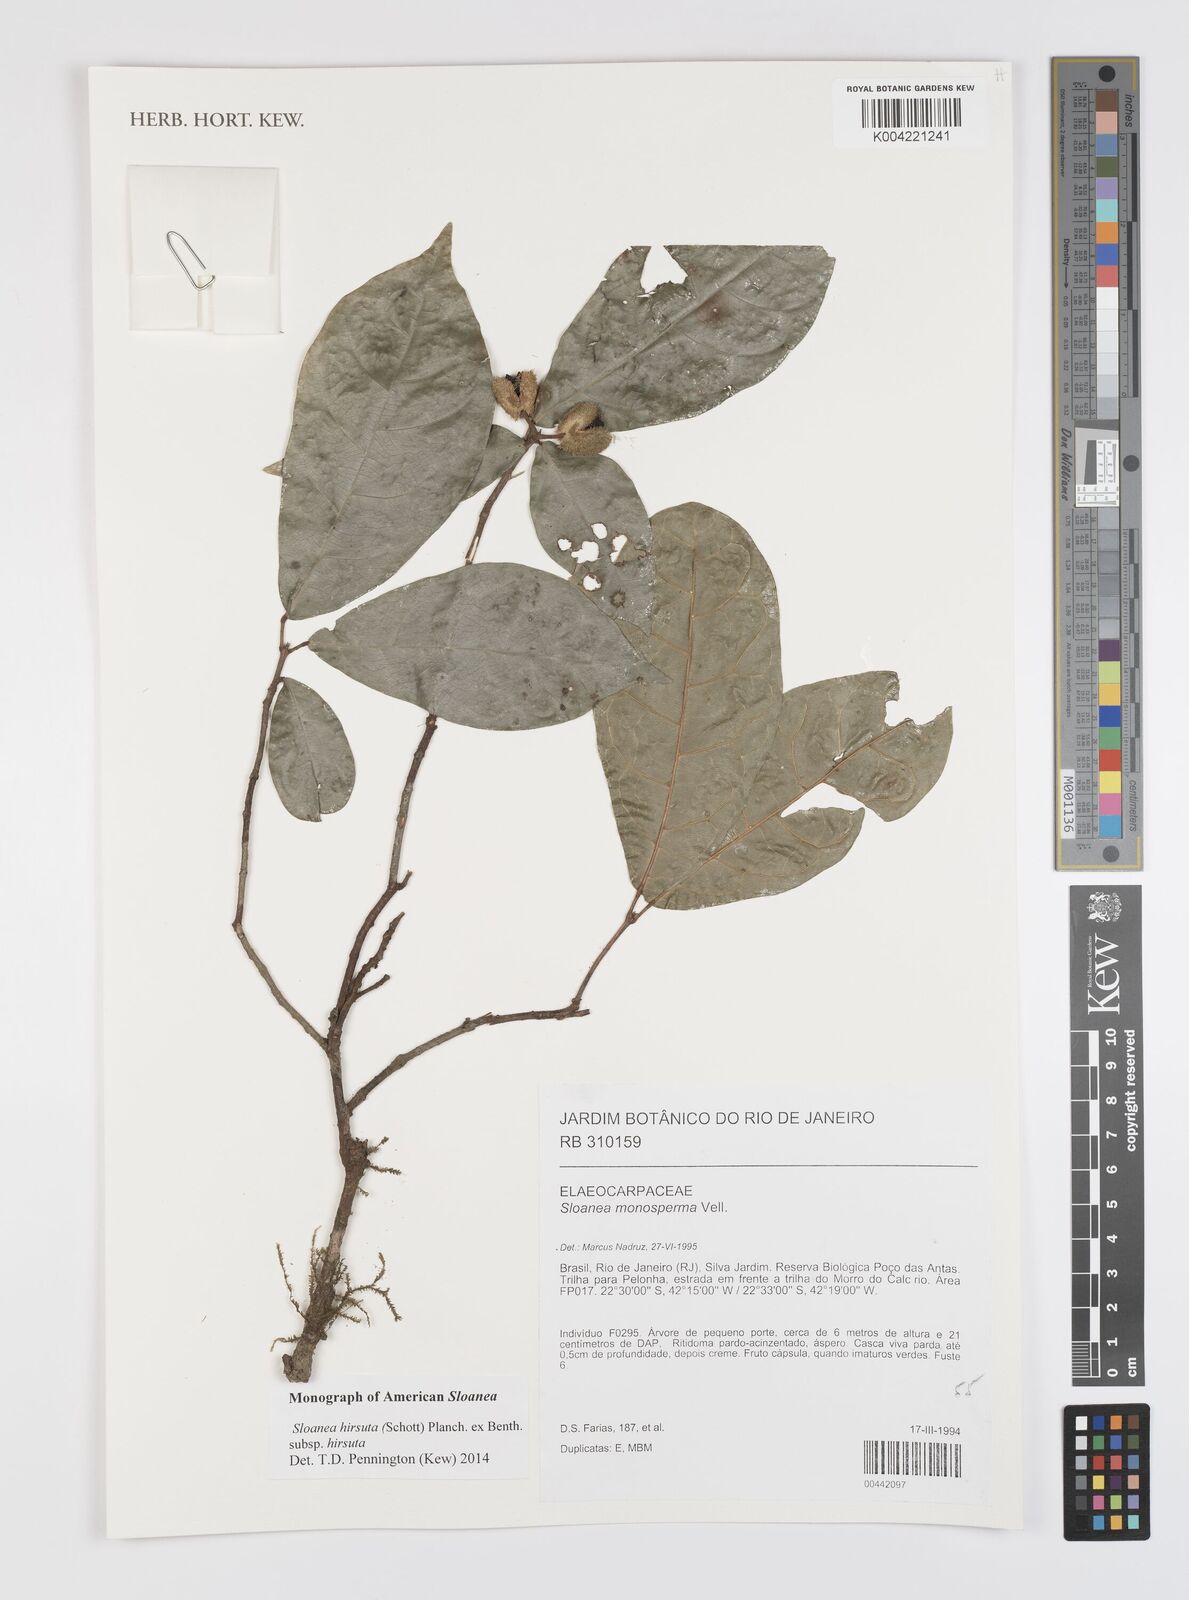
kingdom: Plantae
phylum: Tracheophyta
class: Magnoliopsida
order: Oxalidales
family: Elaeocarpaceae
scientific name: Elaeocarpaceae
